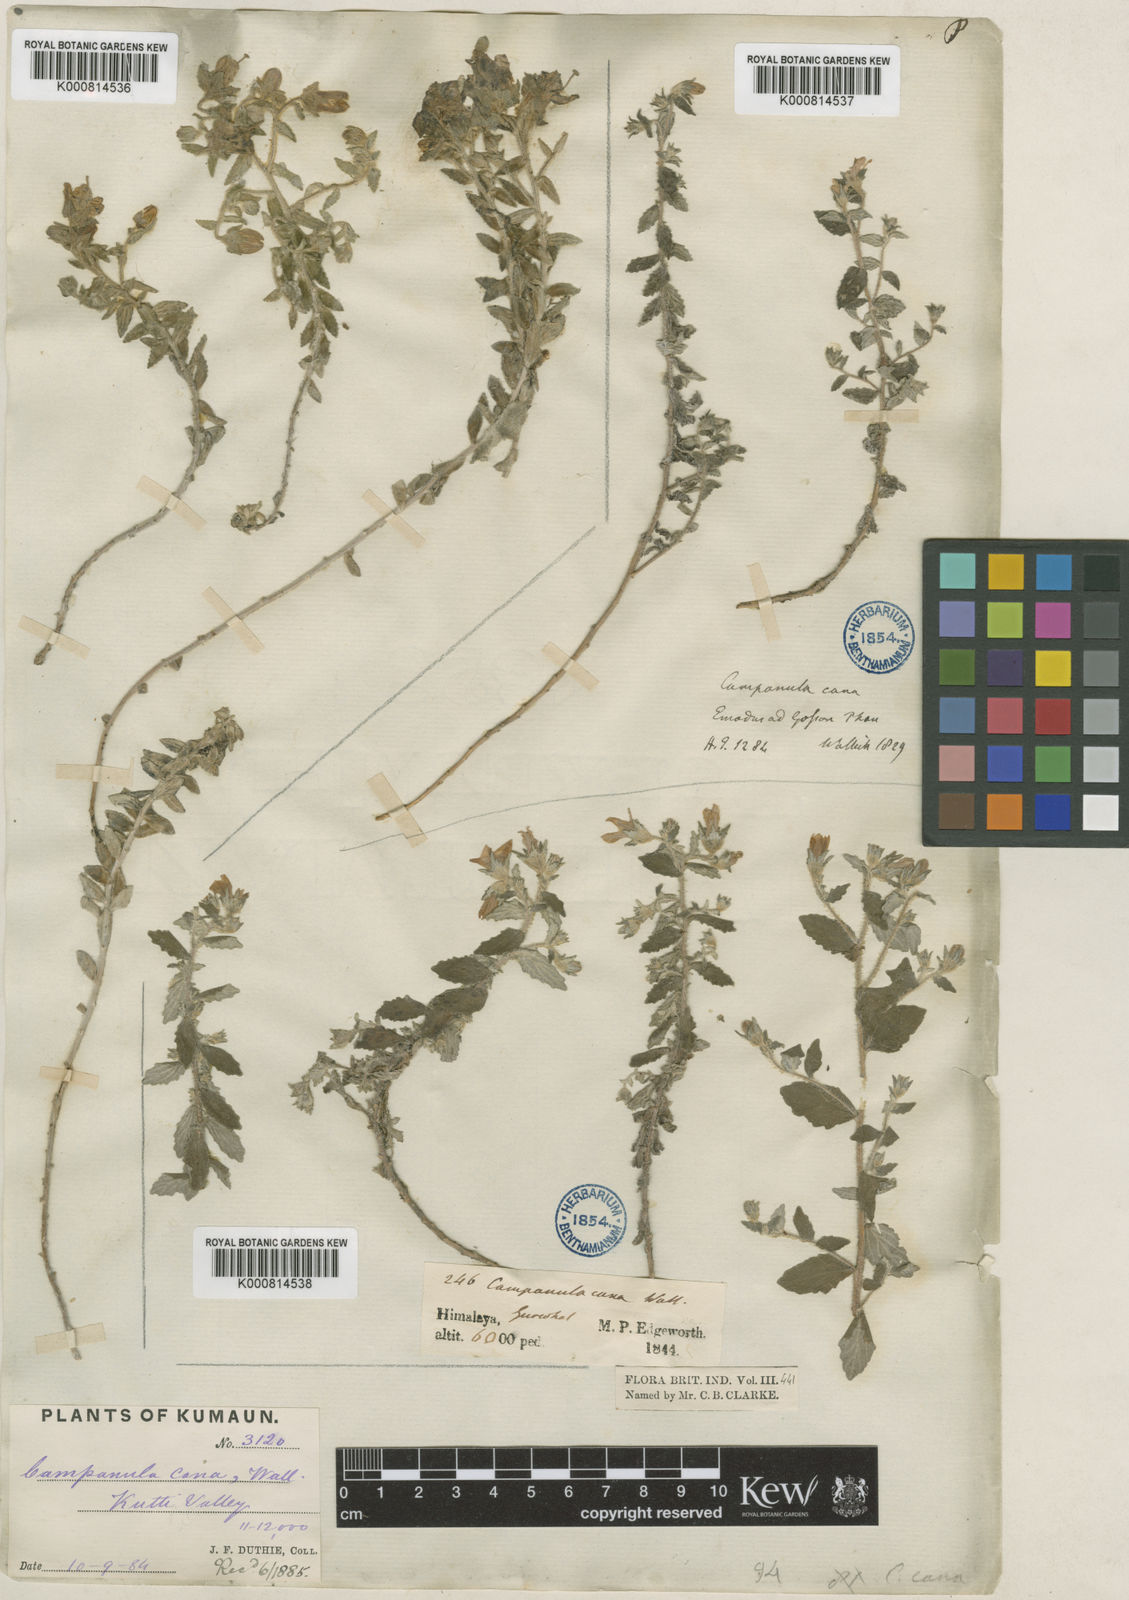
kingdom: Plantae
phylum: Tracheophyta
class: Magnoliopsida
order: Asterales
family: Campanulaceae
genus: Campanula
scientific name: Campanula cana
